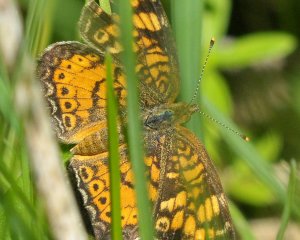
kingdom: Animalia
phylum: Arthropoda
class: Insecta
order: Lepidoptera
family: Nymphalidae
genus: Phyciodes
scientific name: Phyciodes tharos
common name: Northern Crescent
